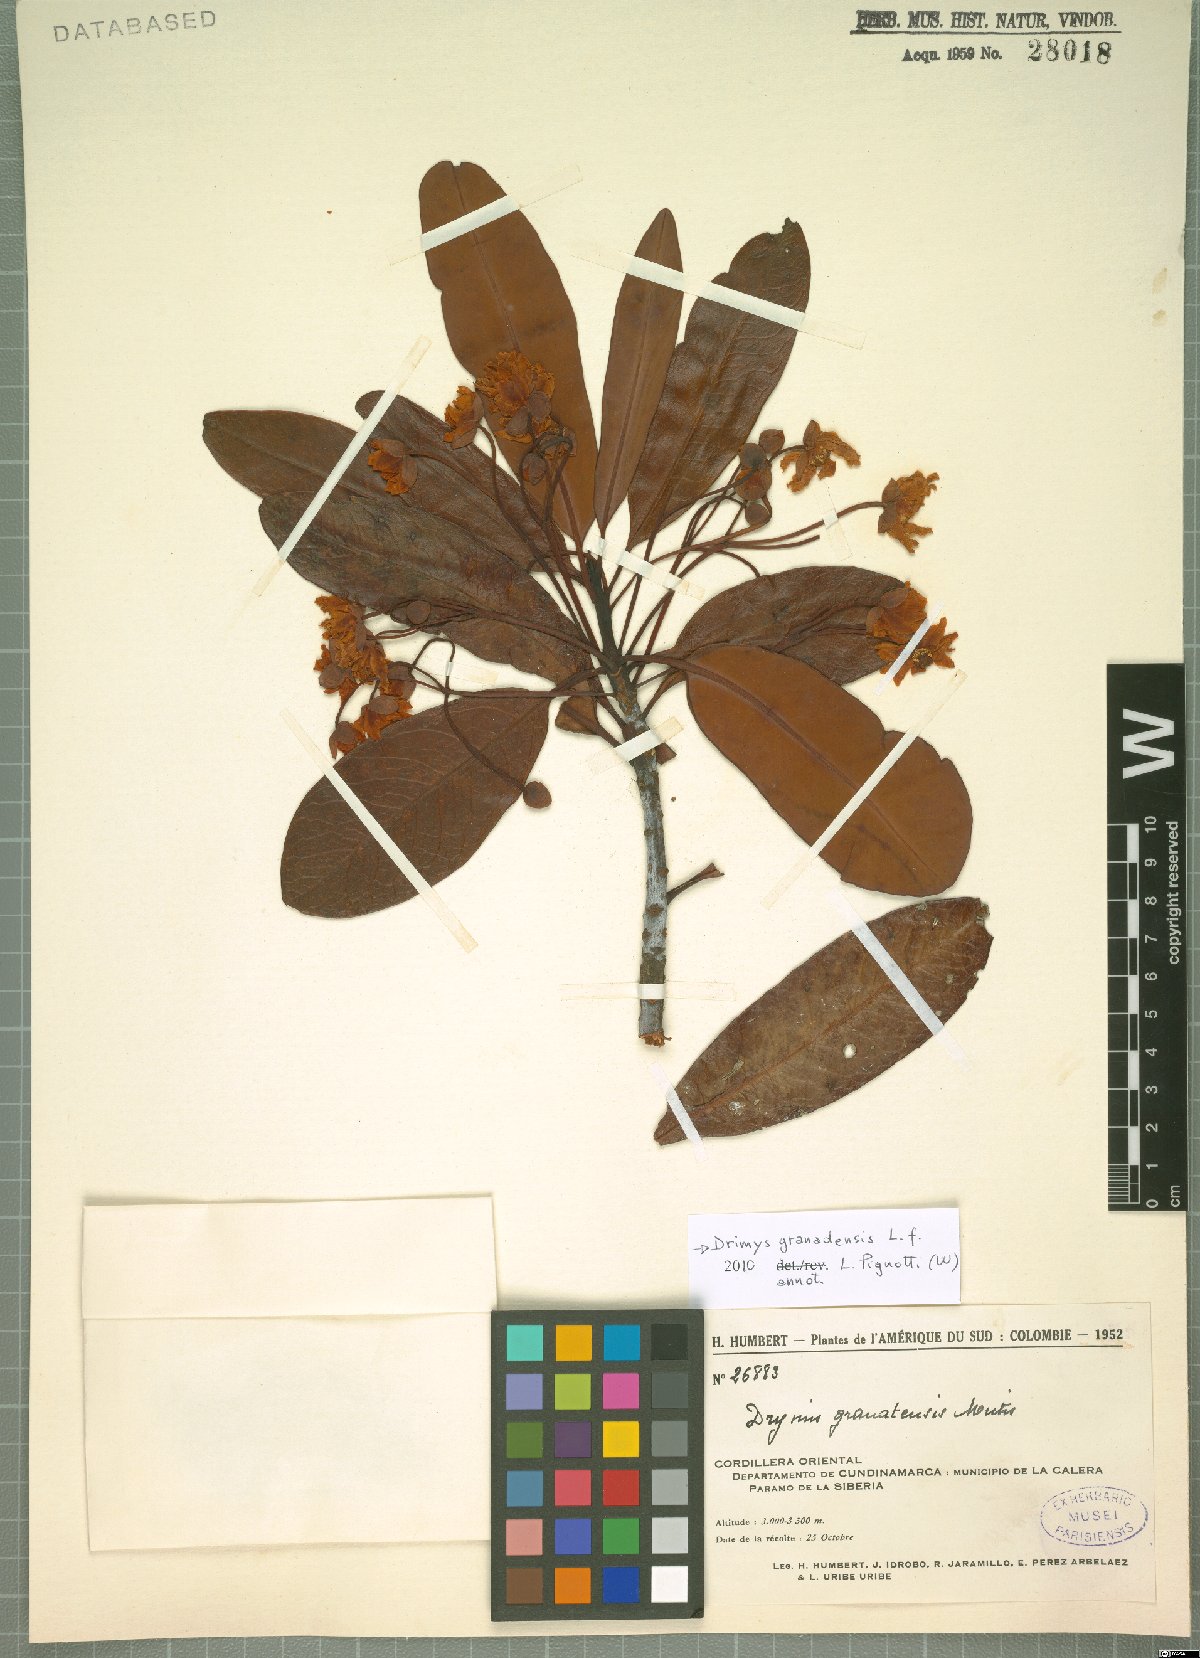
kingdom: Plantae
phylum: Tracheophyta
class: Magnoliopsida
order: Canellales
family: Winteraceae
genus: Drimys
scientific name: Drimys granadensis
